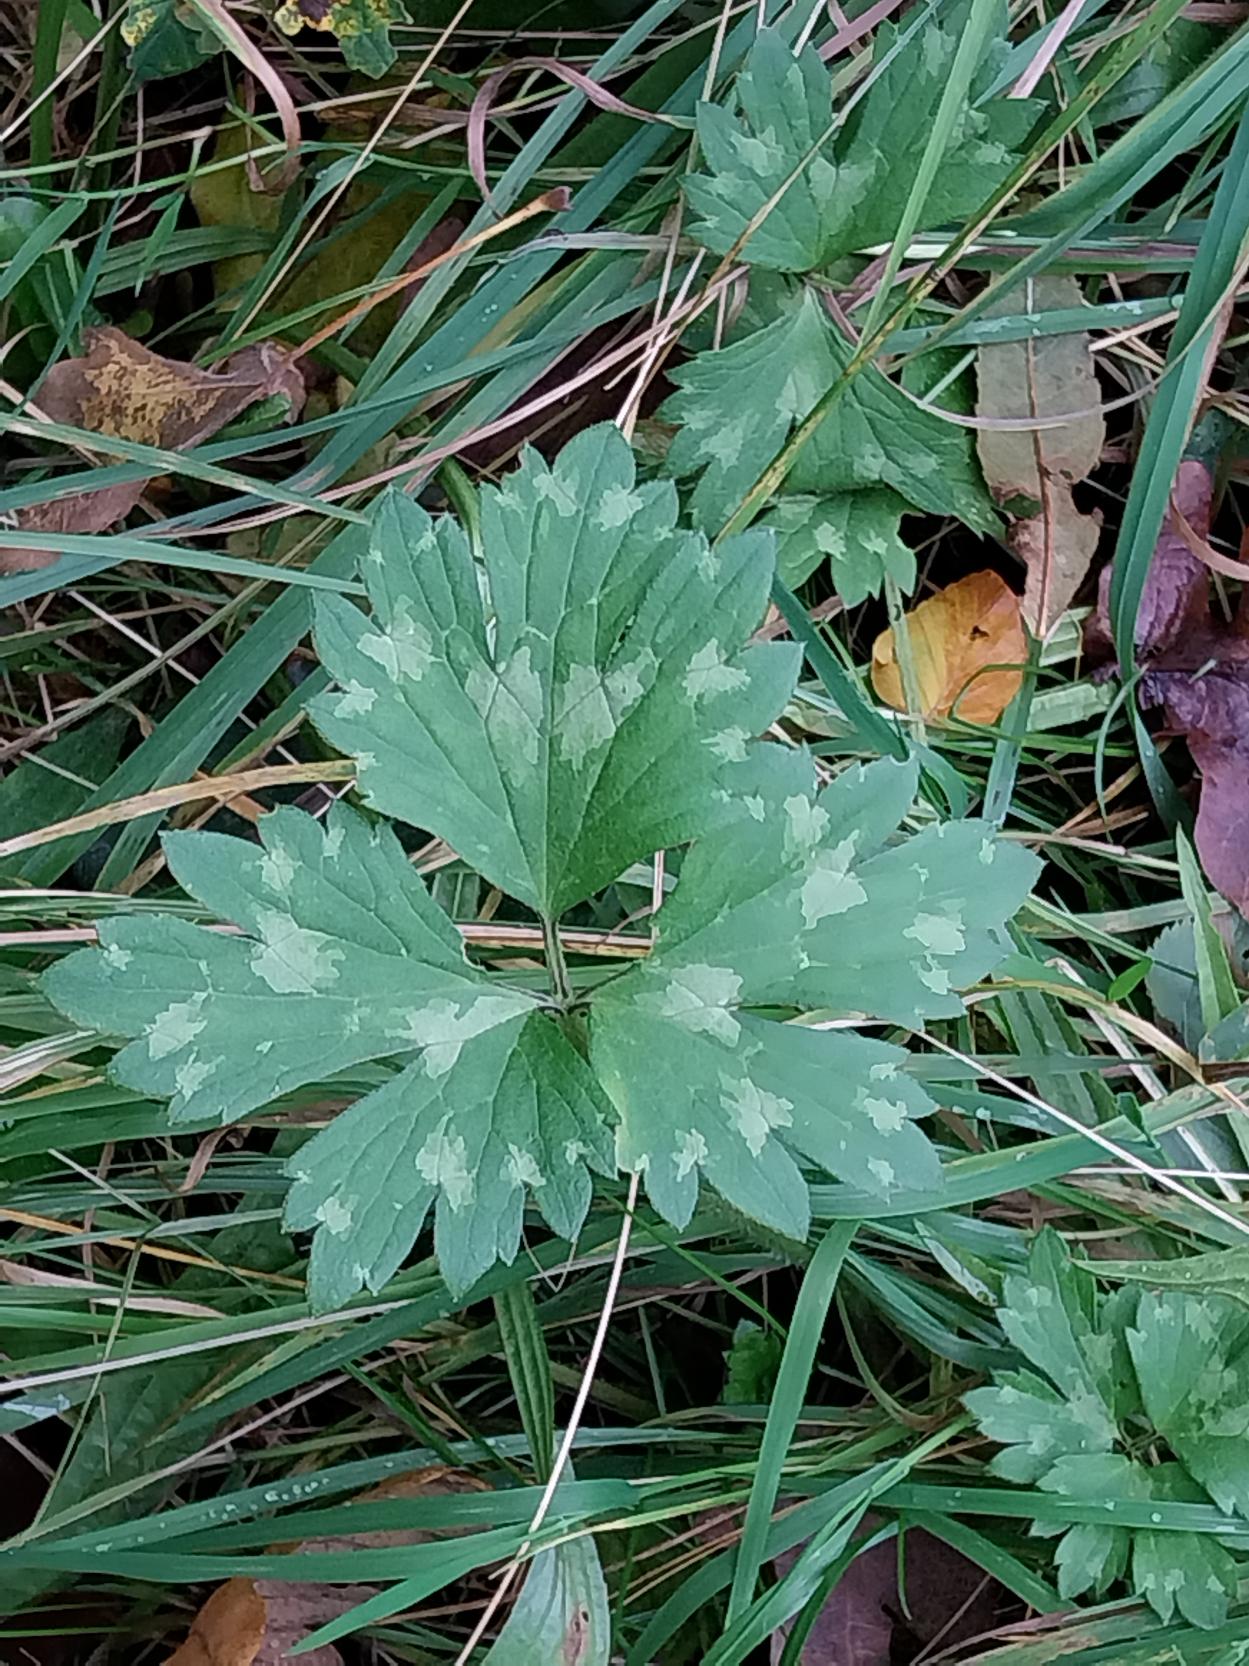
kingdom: Plantae
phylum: Tracheophyta
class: Magnoliopsida
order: Ranunculales
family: Ranunculaceae
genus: Ranunculus
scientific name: Ranunculus repens
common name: Lav ranunkel
